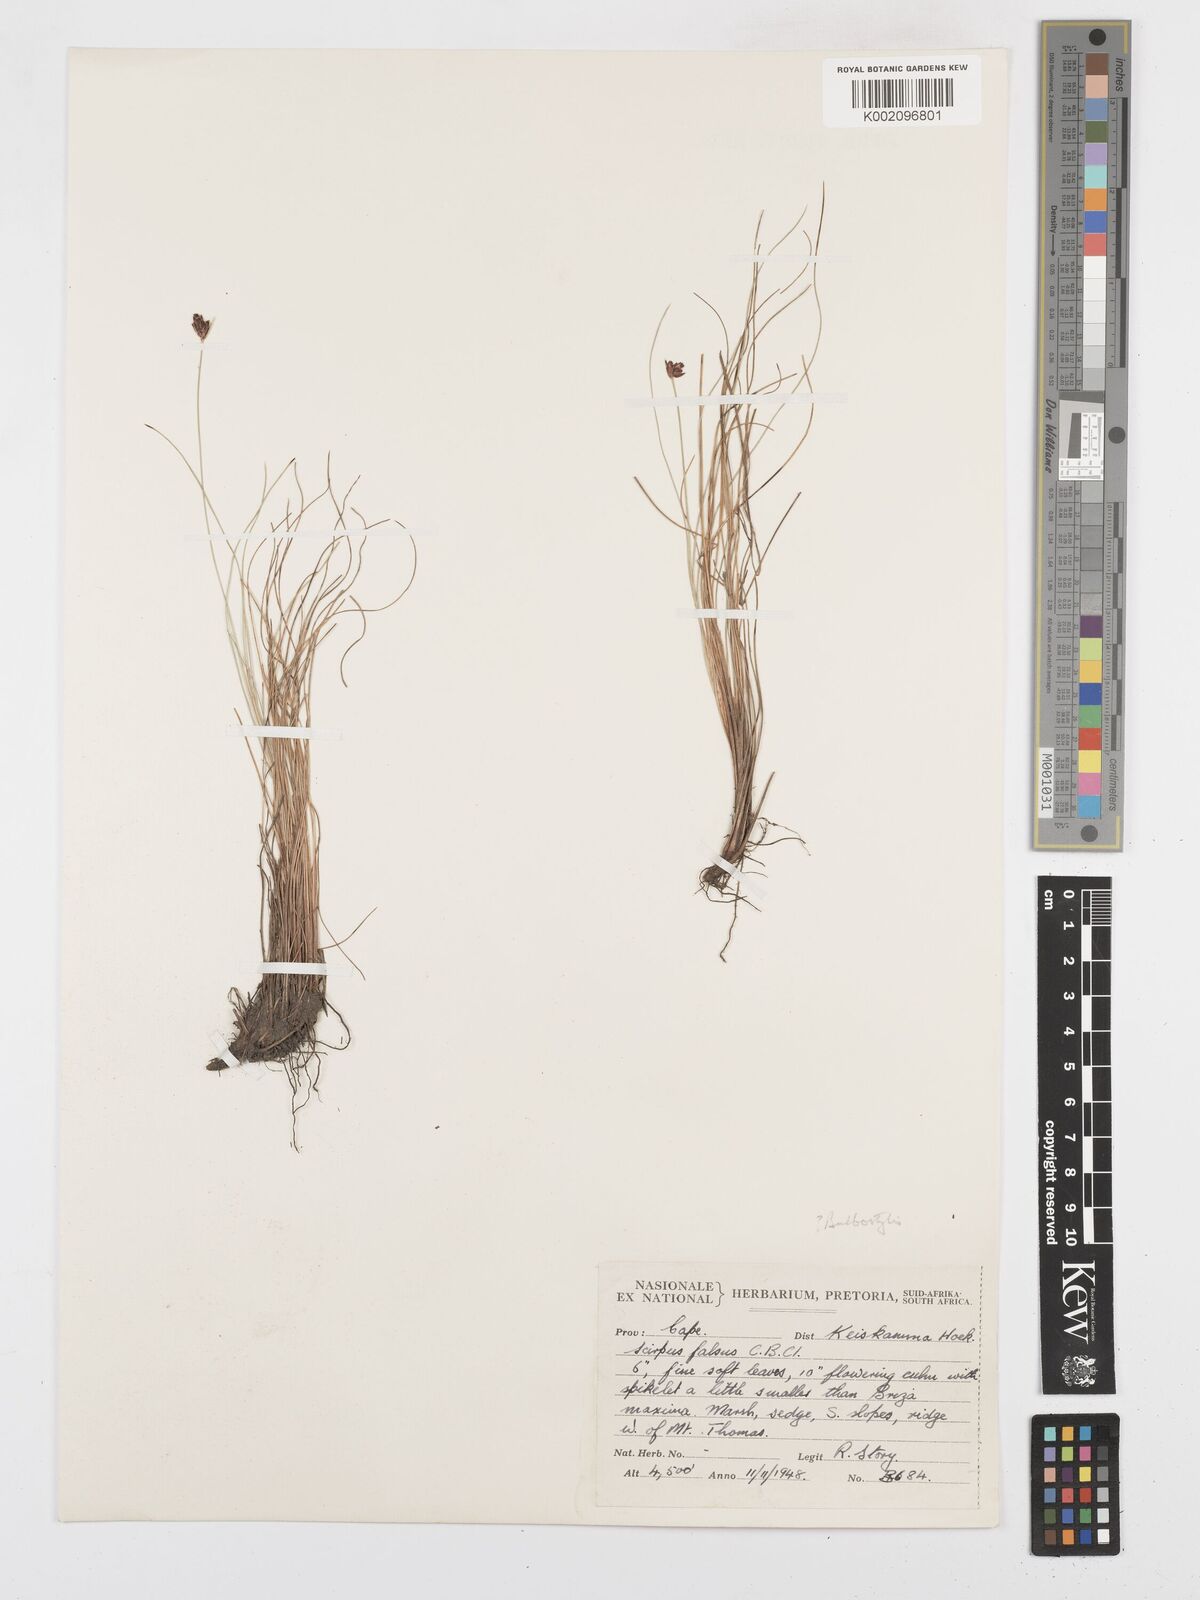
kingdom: Plantae
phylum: Tracheophyta
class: Liliopsida
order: Poales
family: Cyperaceae
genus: Bulbostylis
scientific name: Bulbostylis
